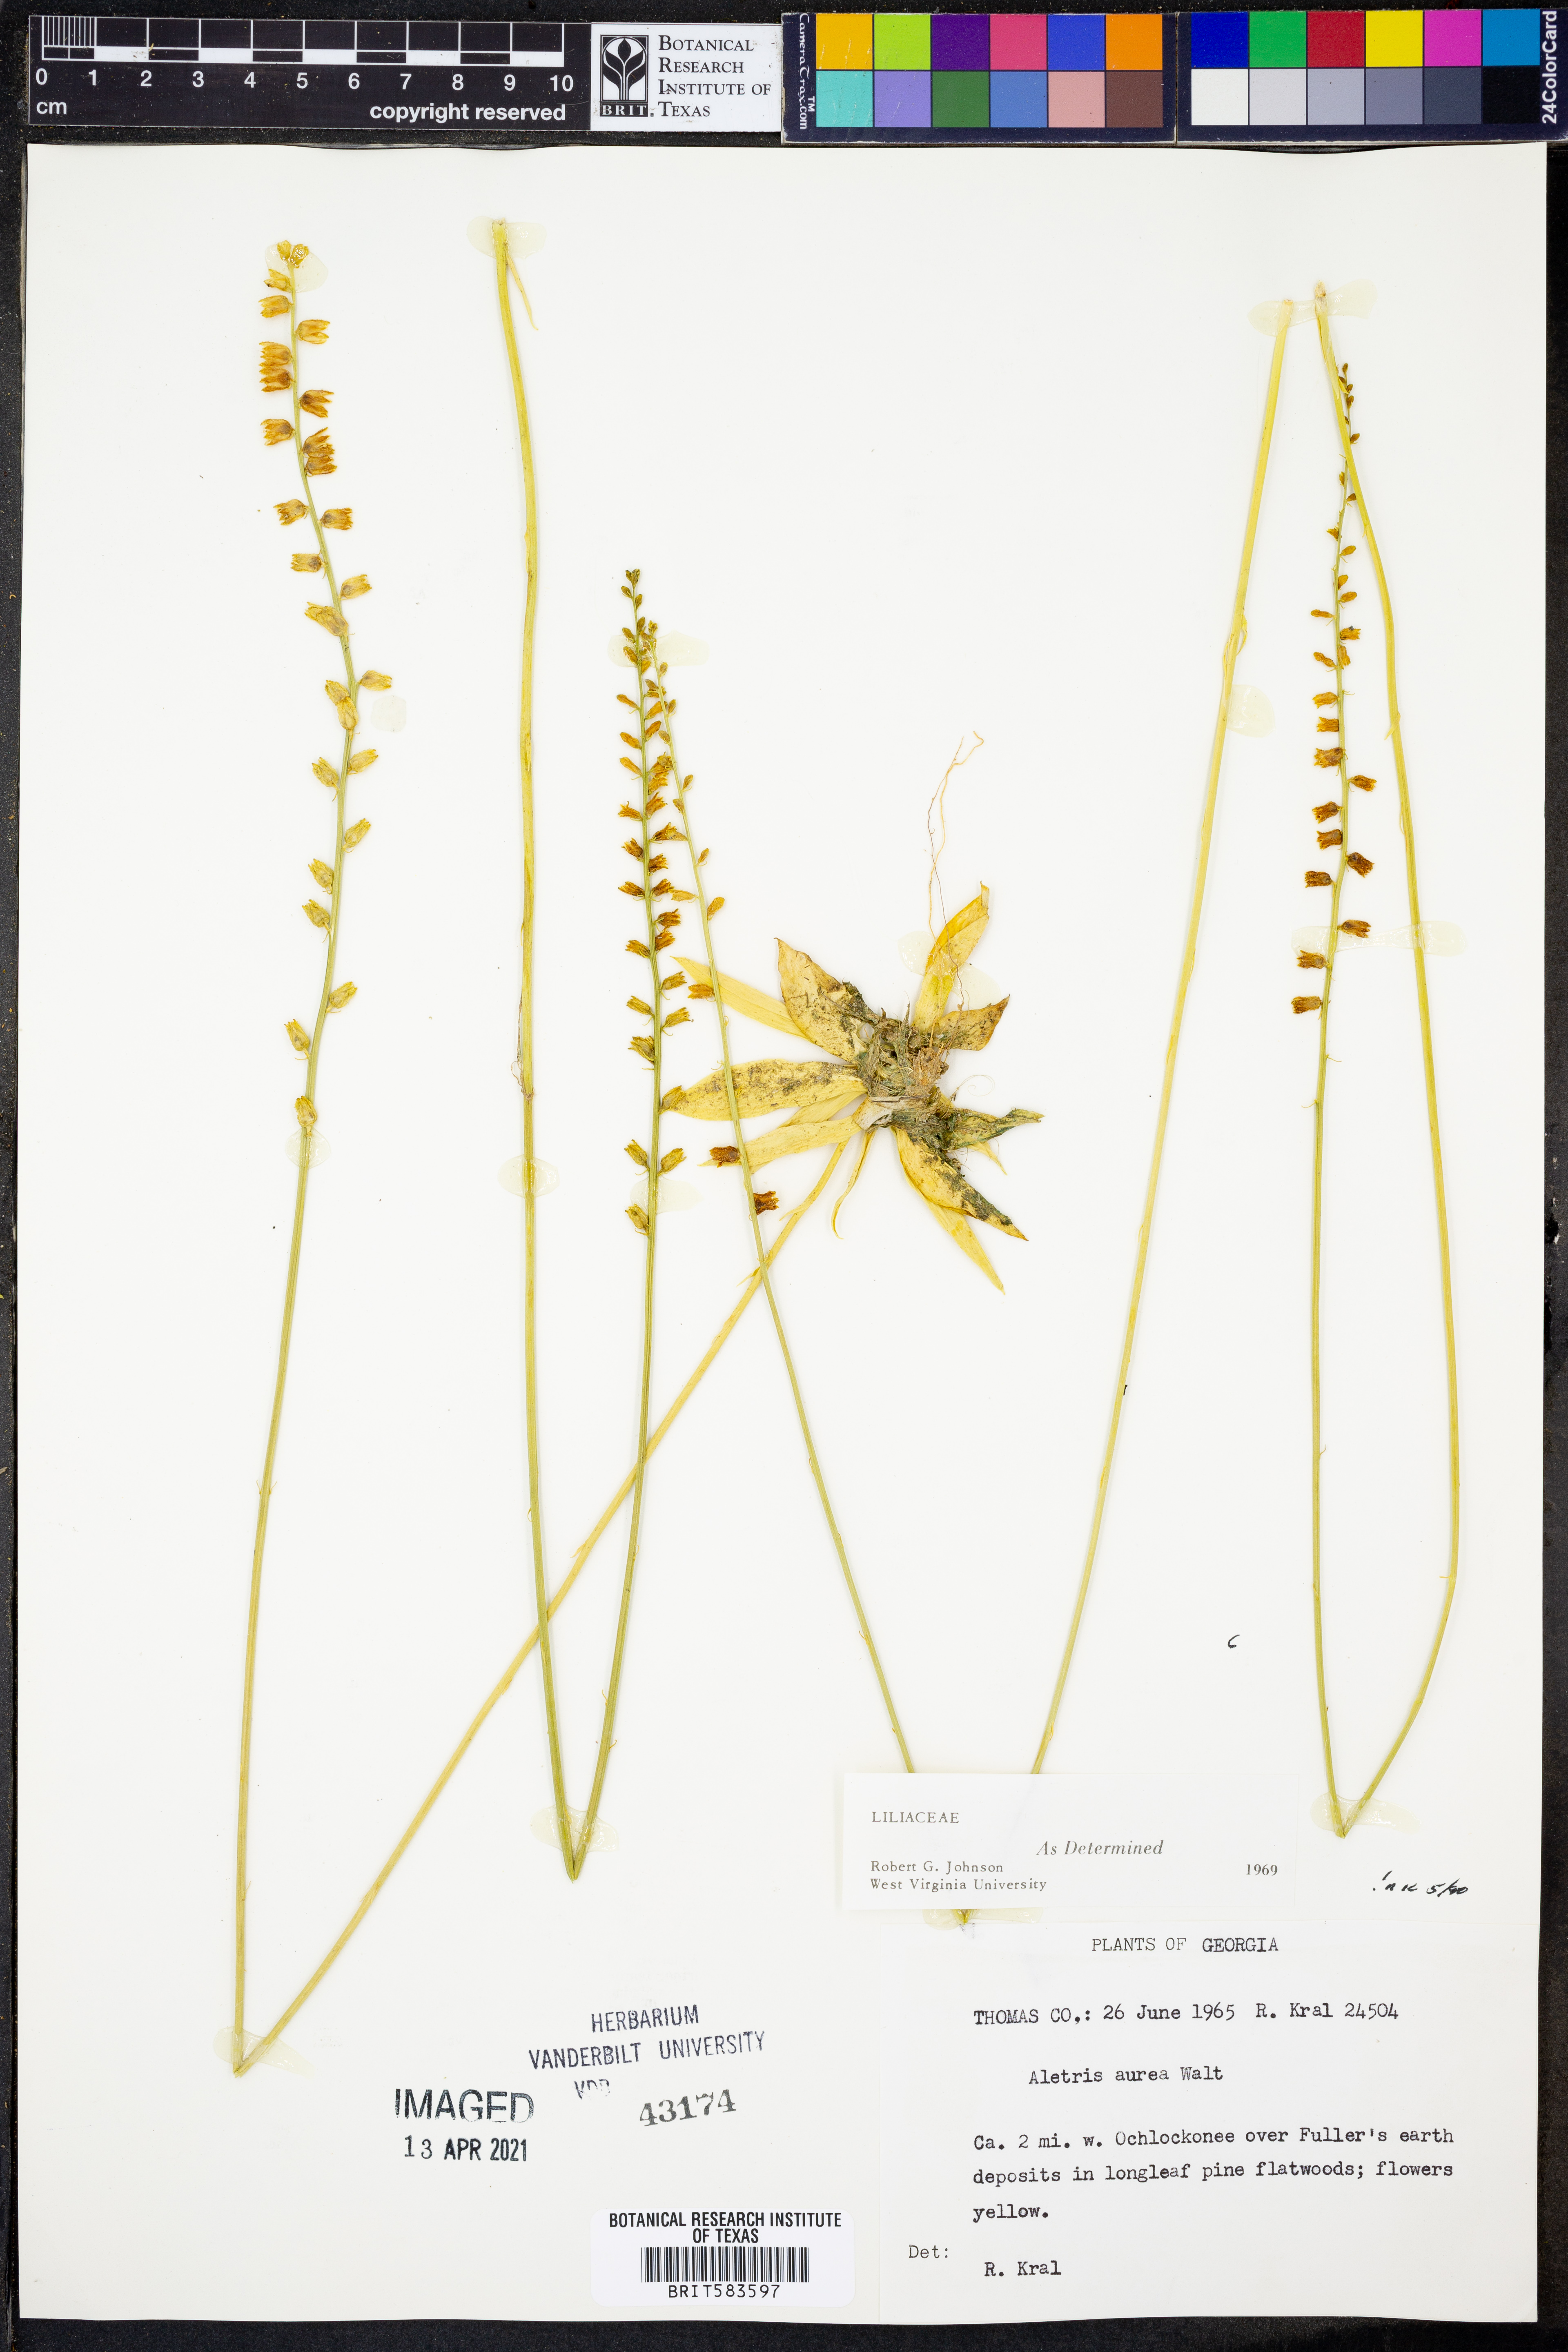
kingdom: Plantae
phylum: Tracheophyta
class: Liliopsida
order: Dioscoreales
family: Nartheciaceae
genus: Aletris
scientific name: Aletris aurea
